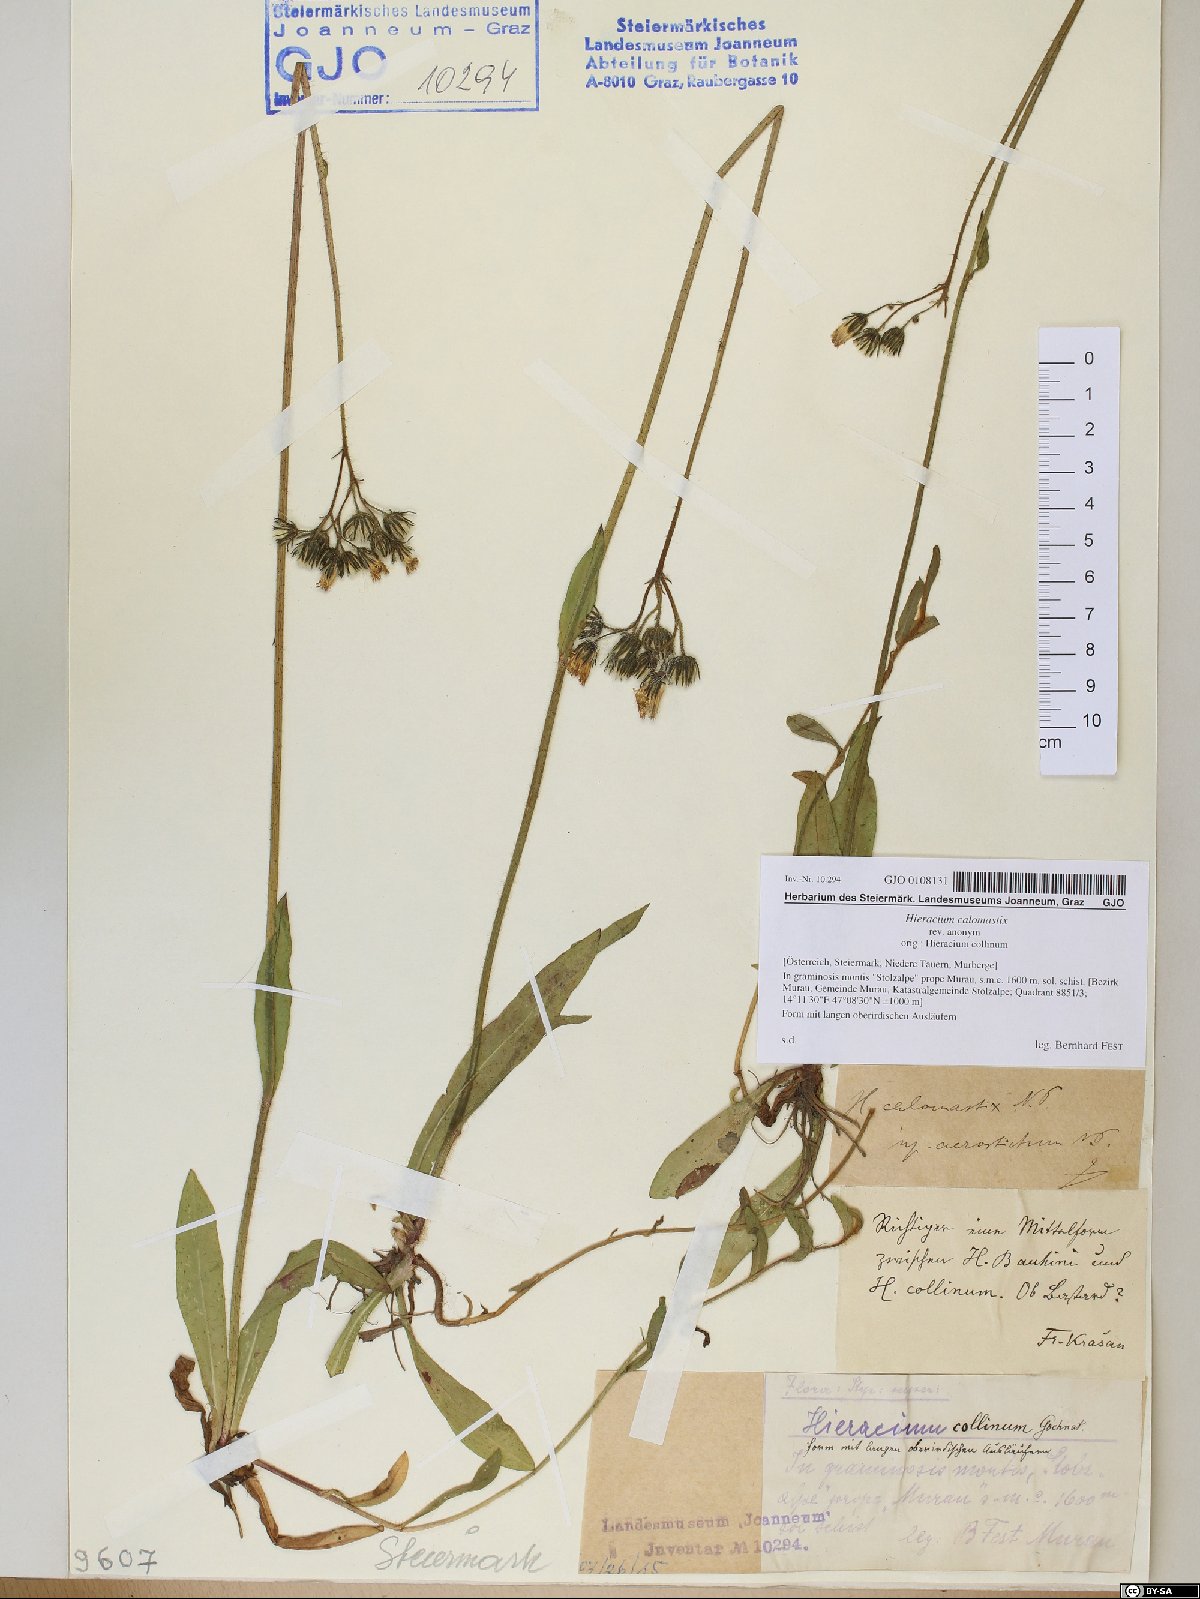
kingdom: Plantae
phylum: Tracheophyta
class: Magnoliopsida
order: Asterales
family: Asteraceae
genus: Pilosella
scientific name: Pilosella calomastix
